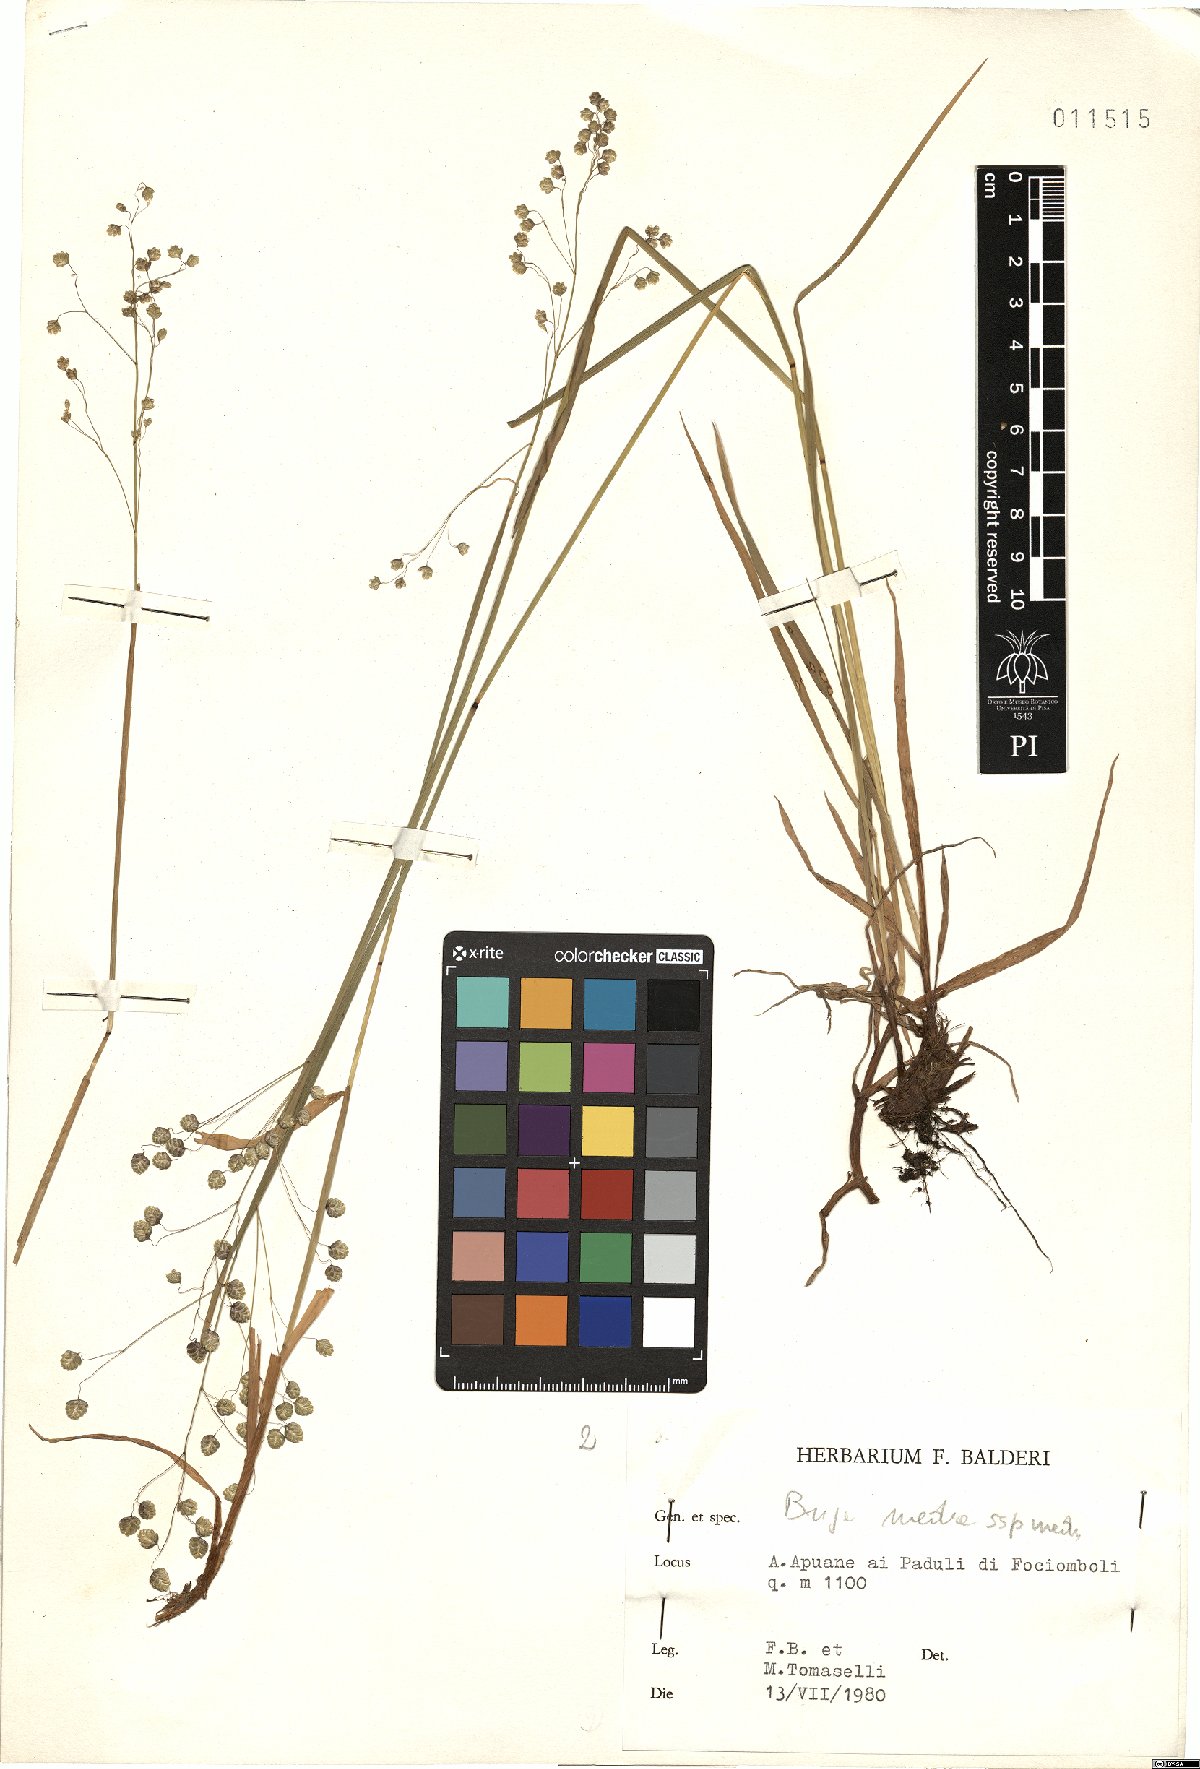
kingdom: Plantae
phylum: Tracheophyta
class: Liliopsida
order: Poales
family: Poaceae
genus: Briza
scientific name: Briza media
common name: Quaking grass
